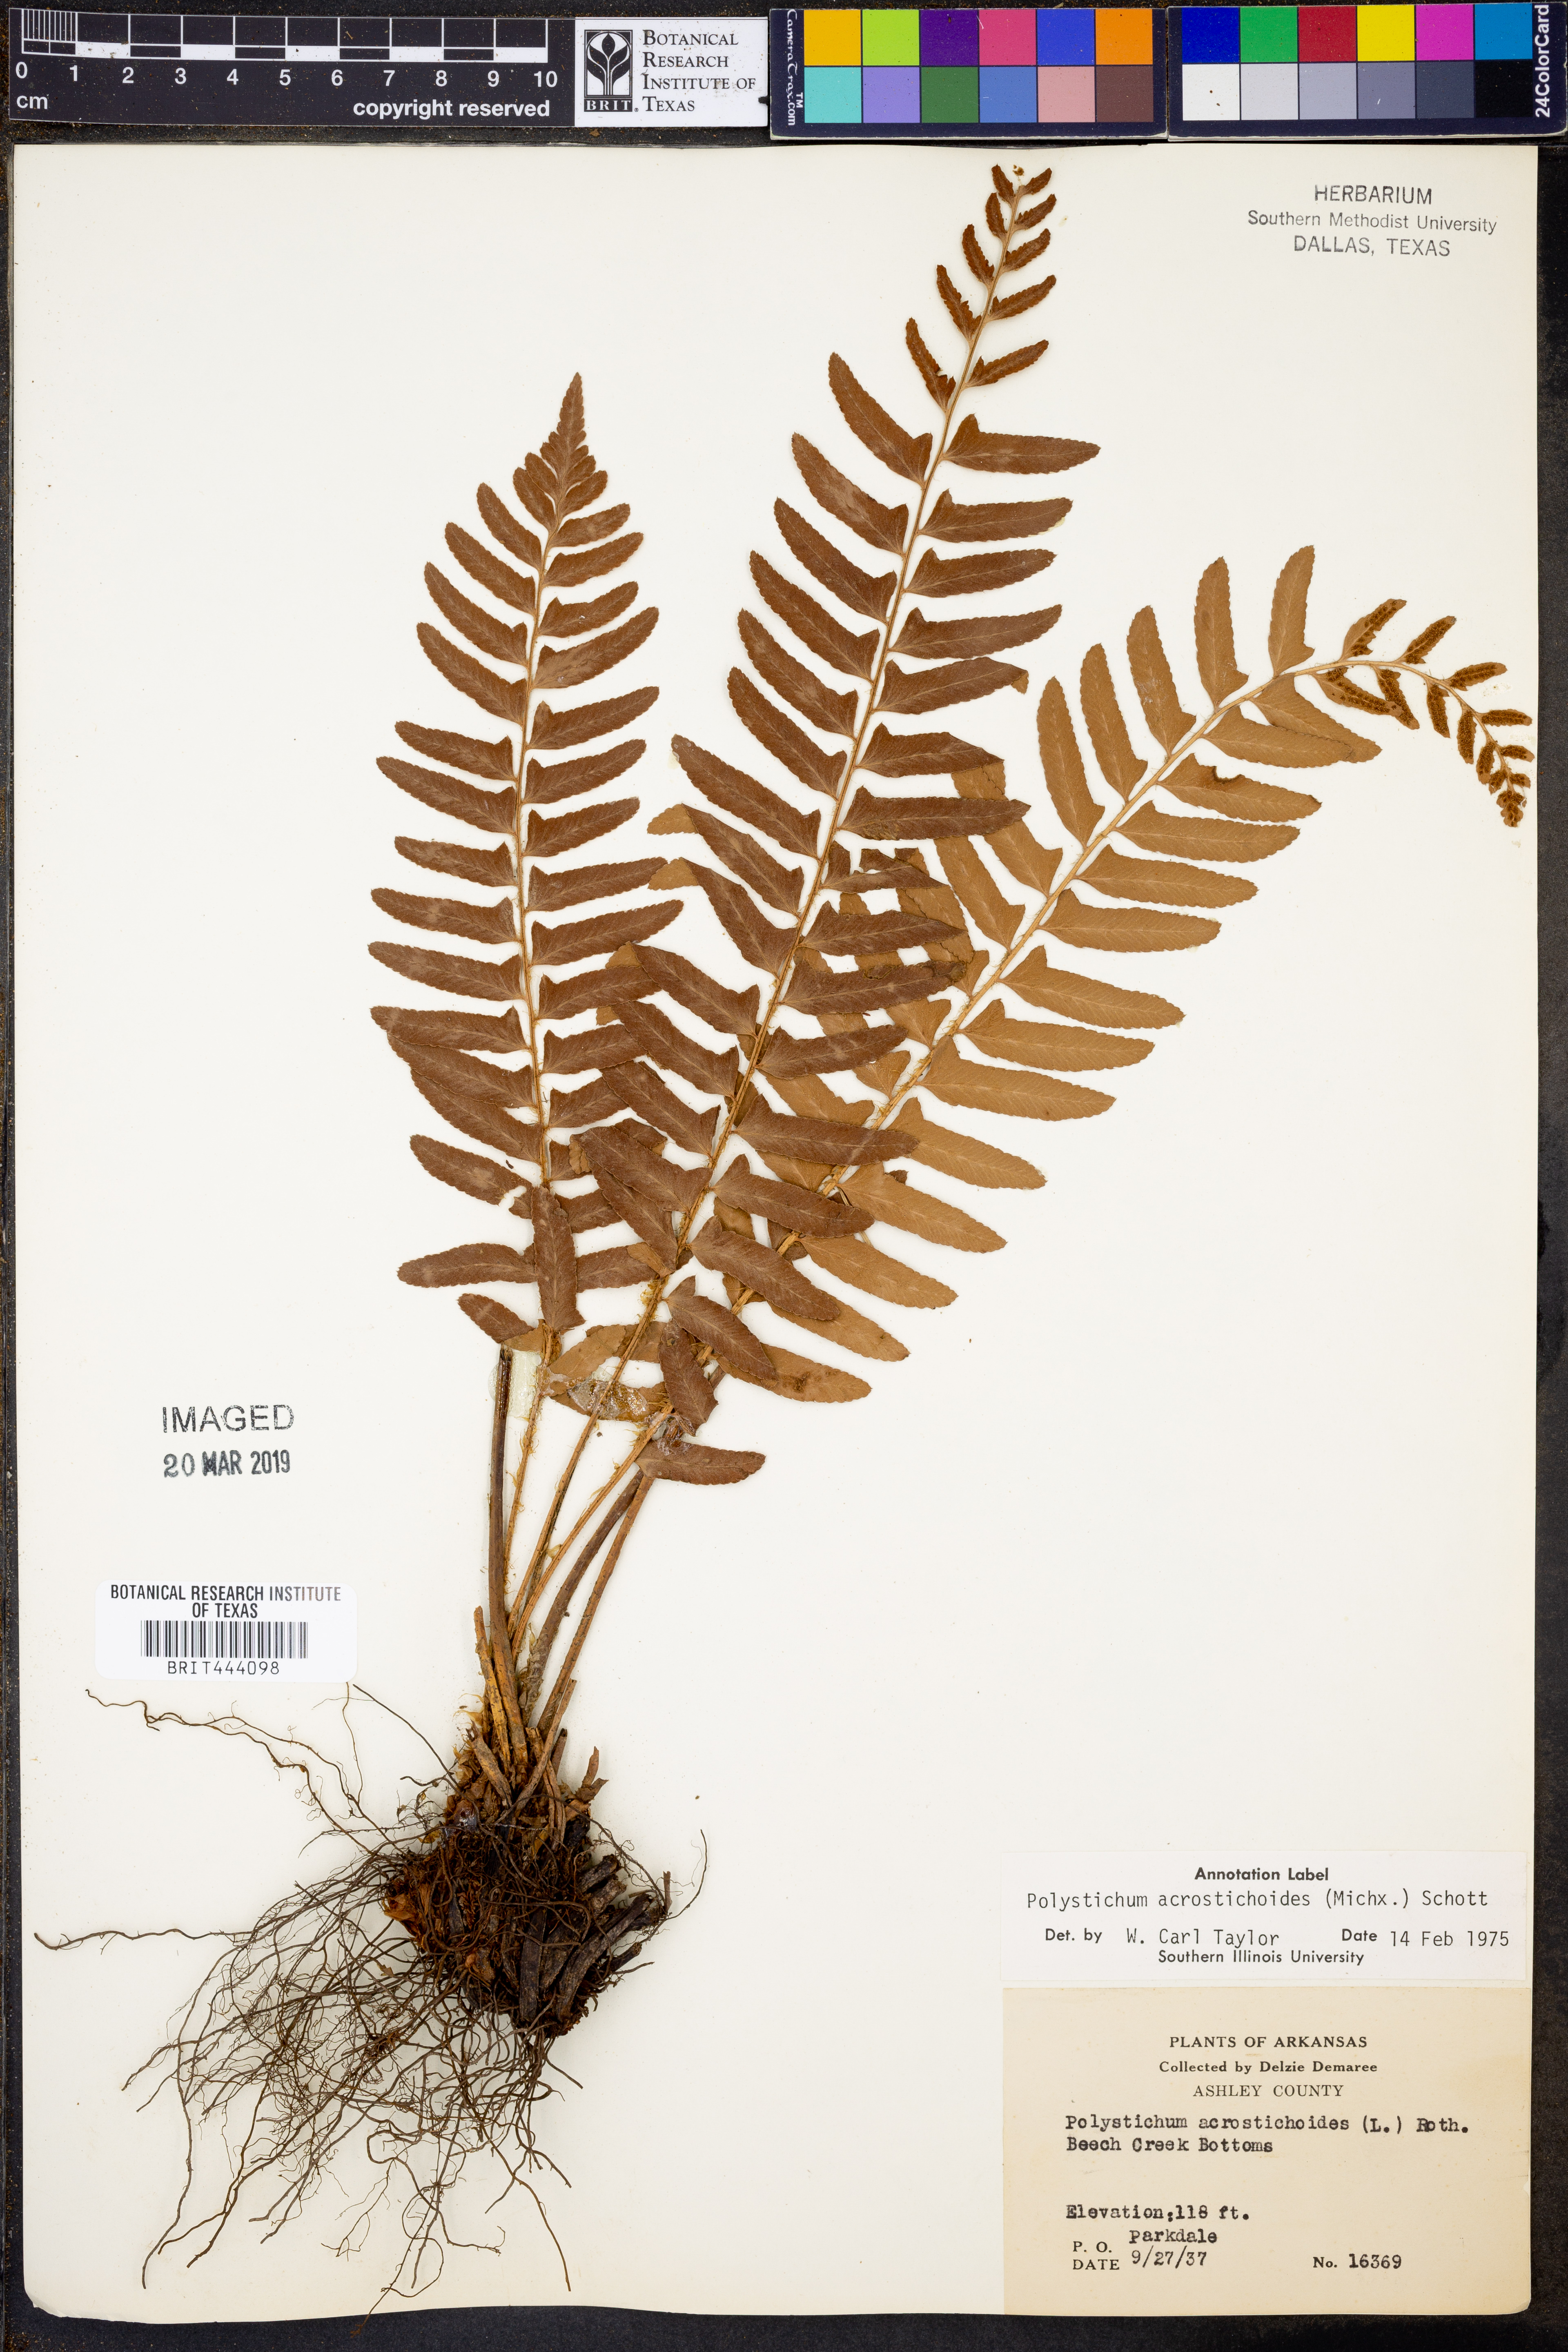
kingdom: Plantae
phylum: Tracheophyta
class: Polypodiopsida
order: Polypodiales
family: Dryopteridaceae
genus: Polystichum
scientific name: Polystichum acrostichoides
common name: Christmas fern
